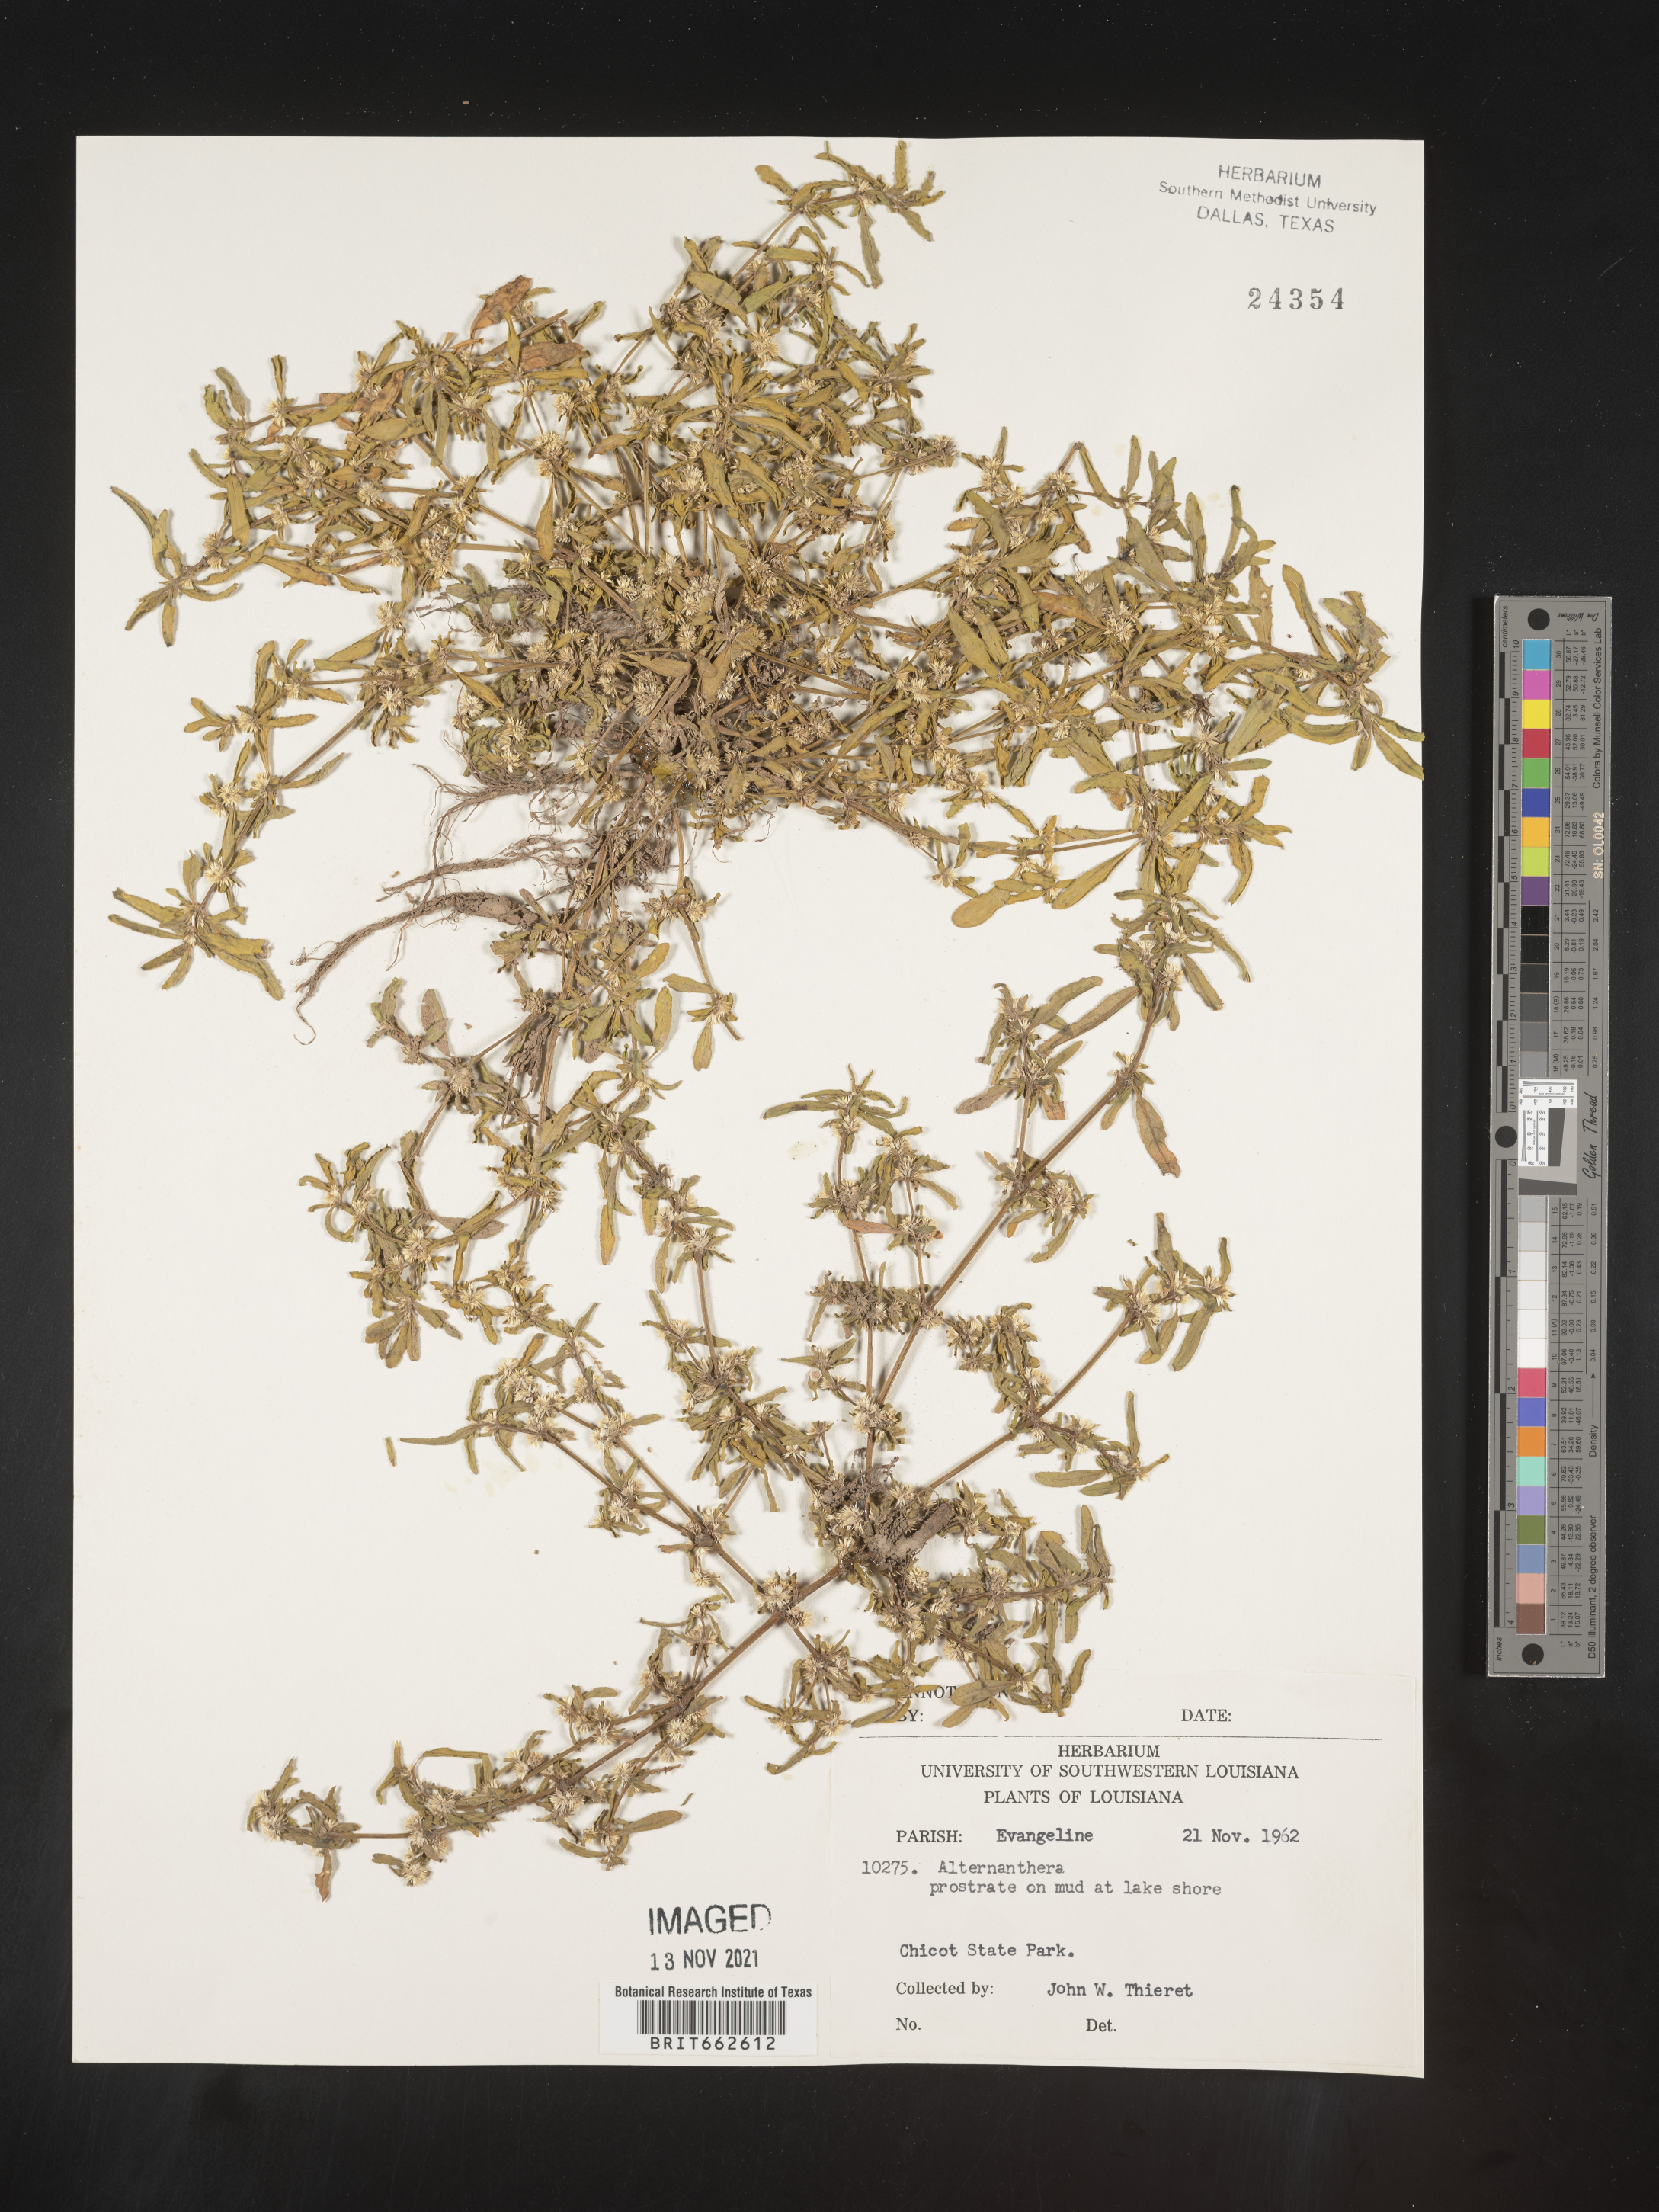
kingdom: Plantae
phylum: Tracheophyta
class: Magnoliopsida
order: Caryophyllales
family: Amaranthaceae
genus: Alternanthera
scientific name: Alternanthera
